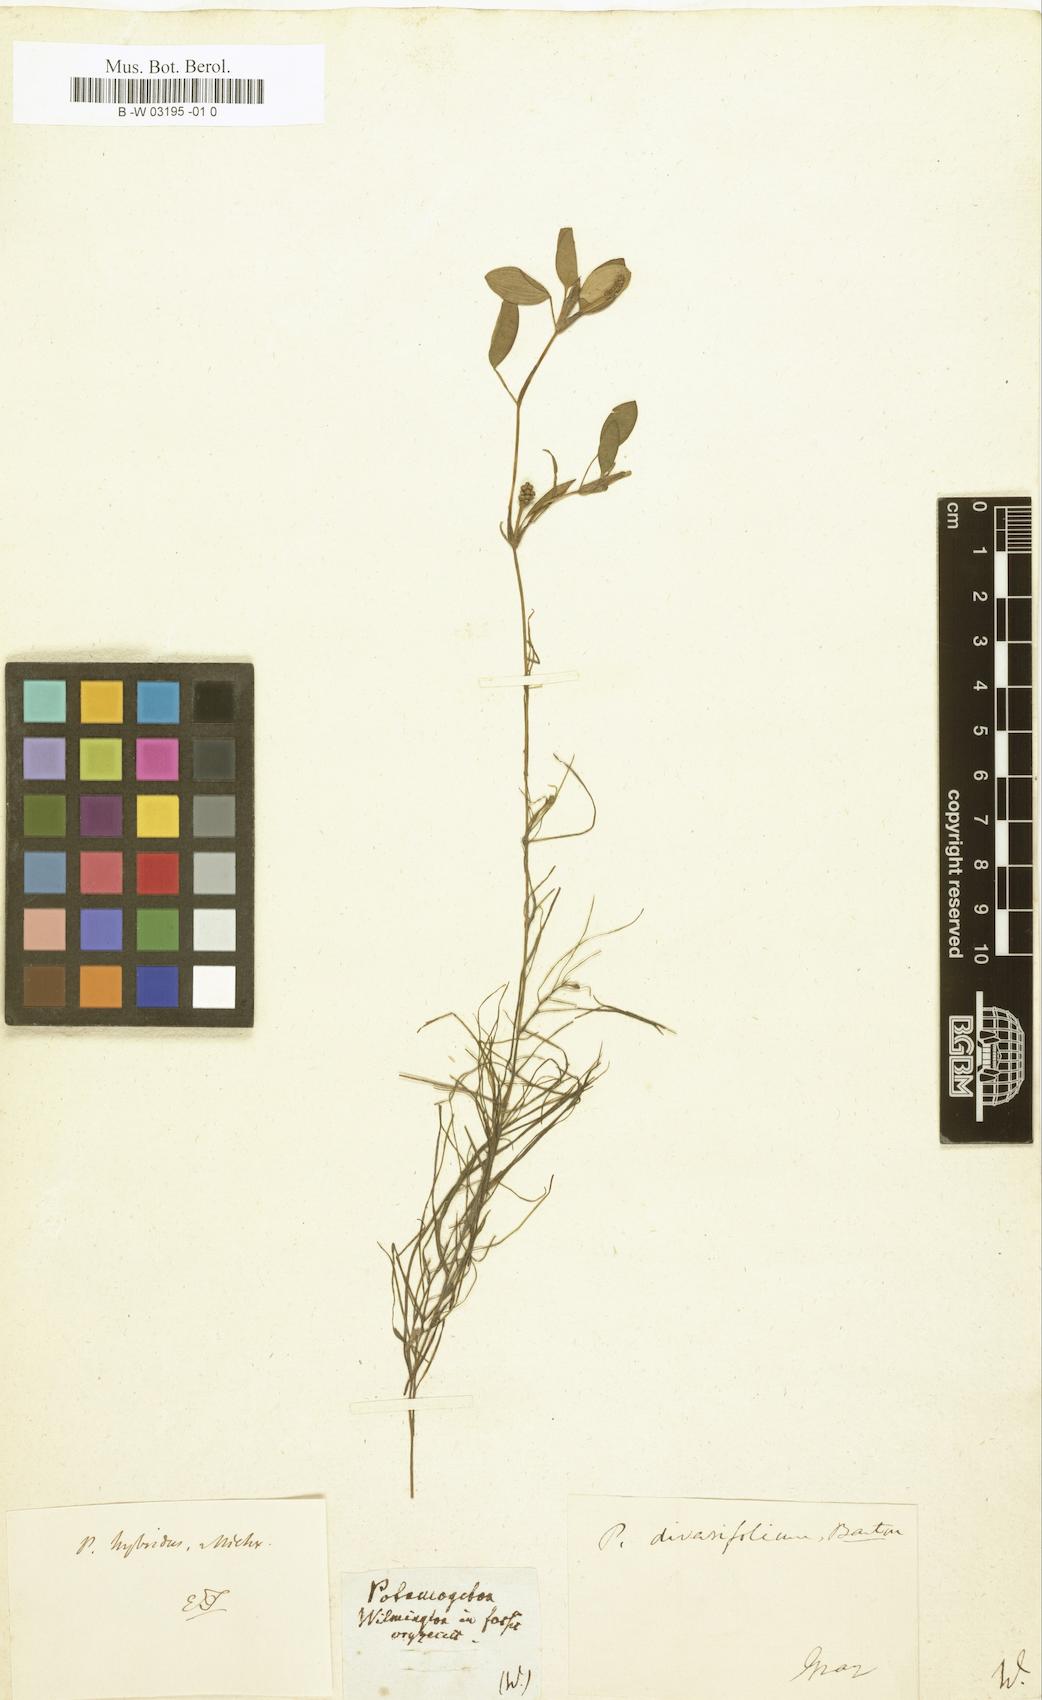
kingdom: Plantae
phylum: Tracheophyta
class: Liliopsida
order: Alismatales
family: Potamogetonaceae
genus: Potamogeton
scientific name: Potamogeton diversifolius
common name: Water-thread pondweed
